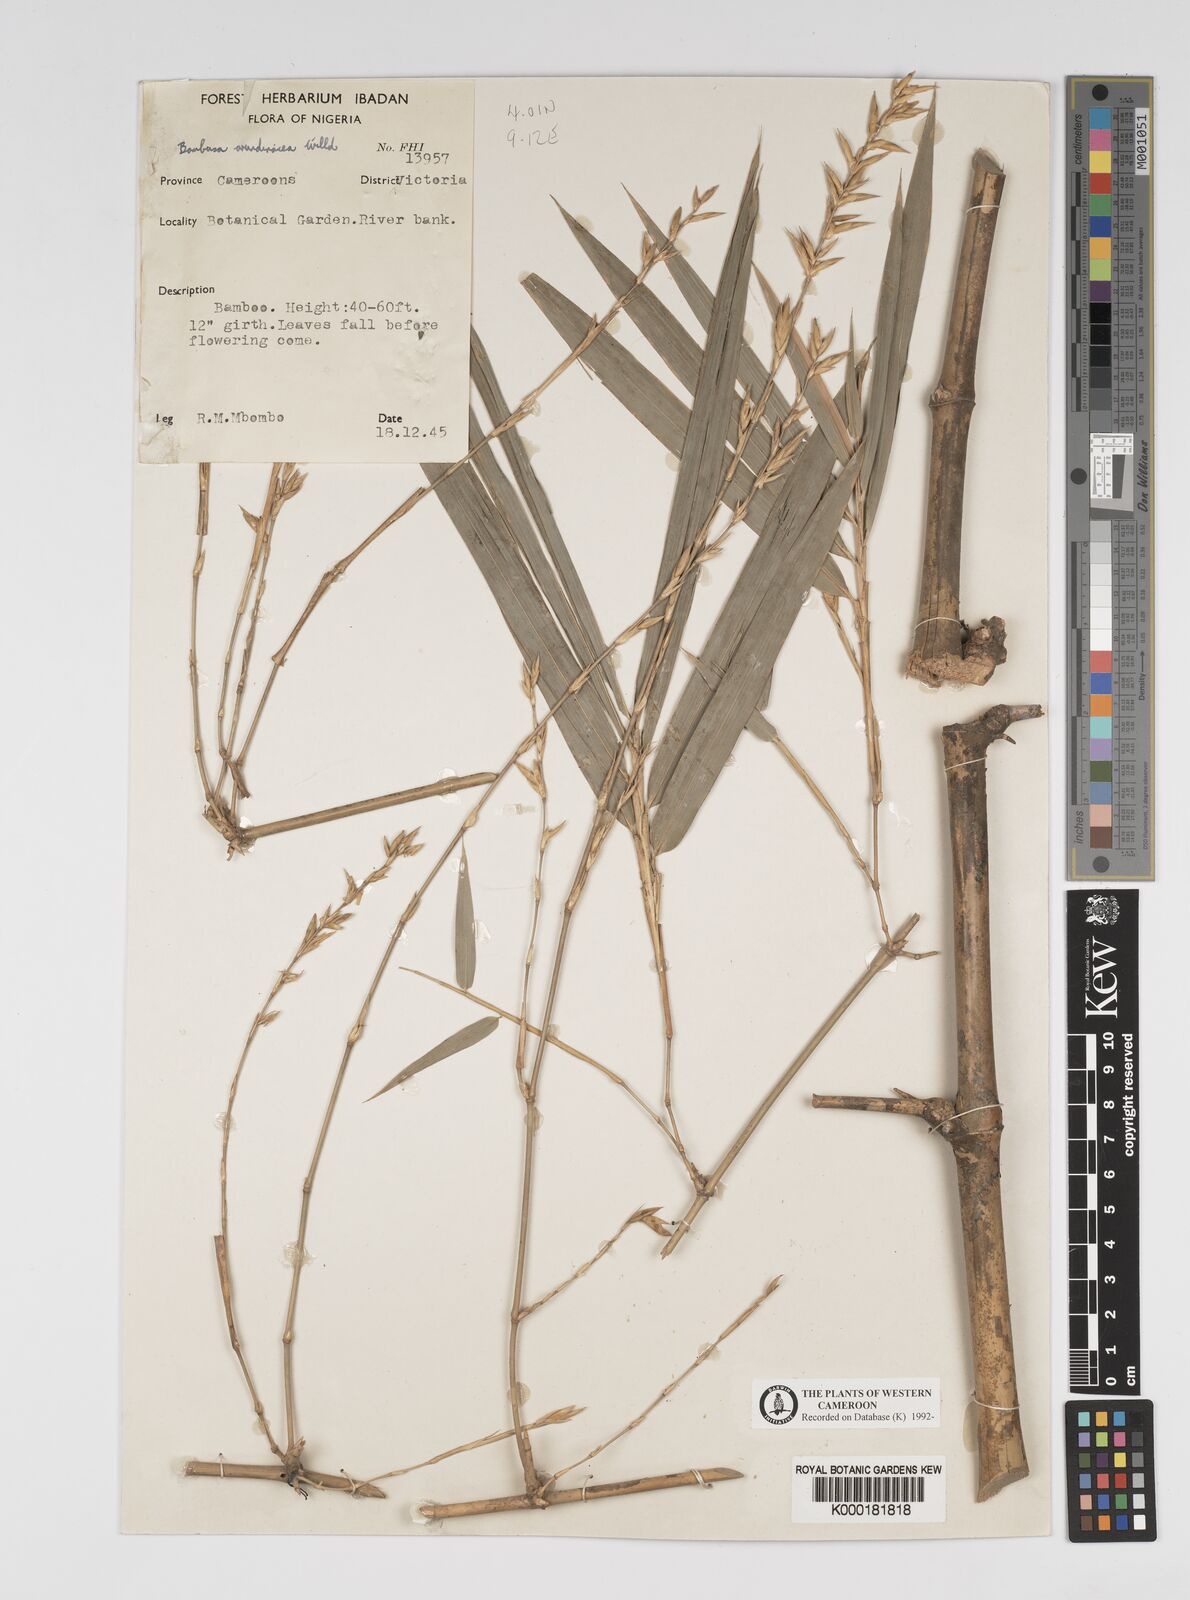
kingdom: Plantae
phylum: Tracheophyta
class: Liliopsida
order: Poales
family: Poaceae
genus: Bambusa
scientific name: Bambusa bambos
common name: Indian thorny bamboo
